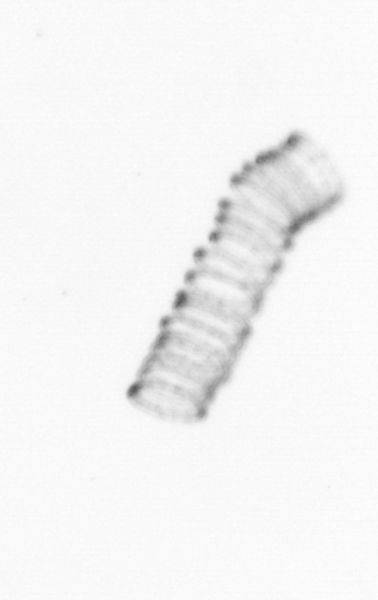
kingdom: Chromista
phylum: Ochrophyta
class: Bacillariophyceae
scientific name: Bacillariophyceae
